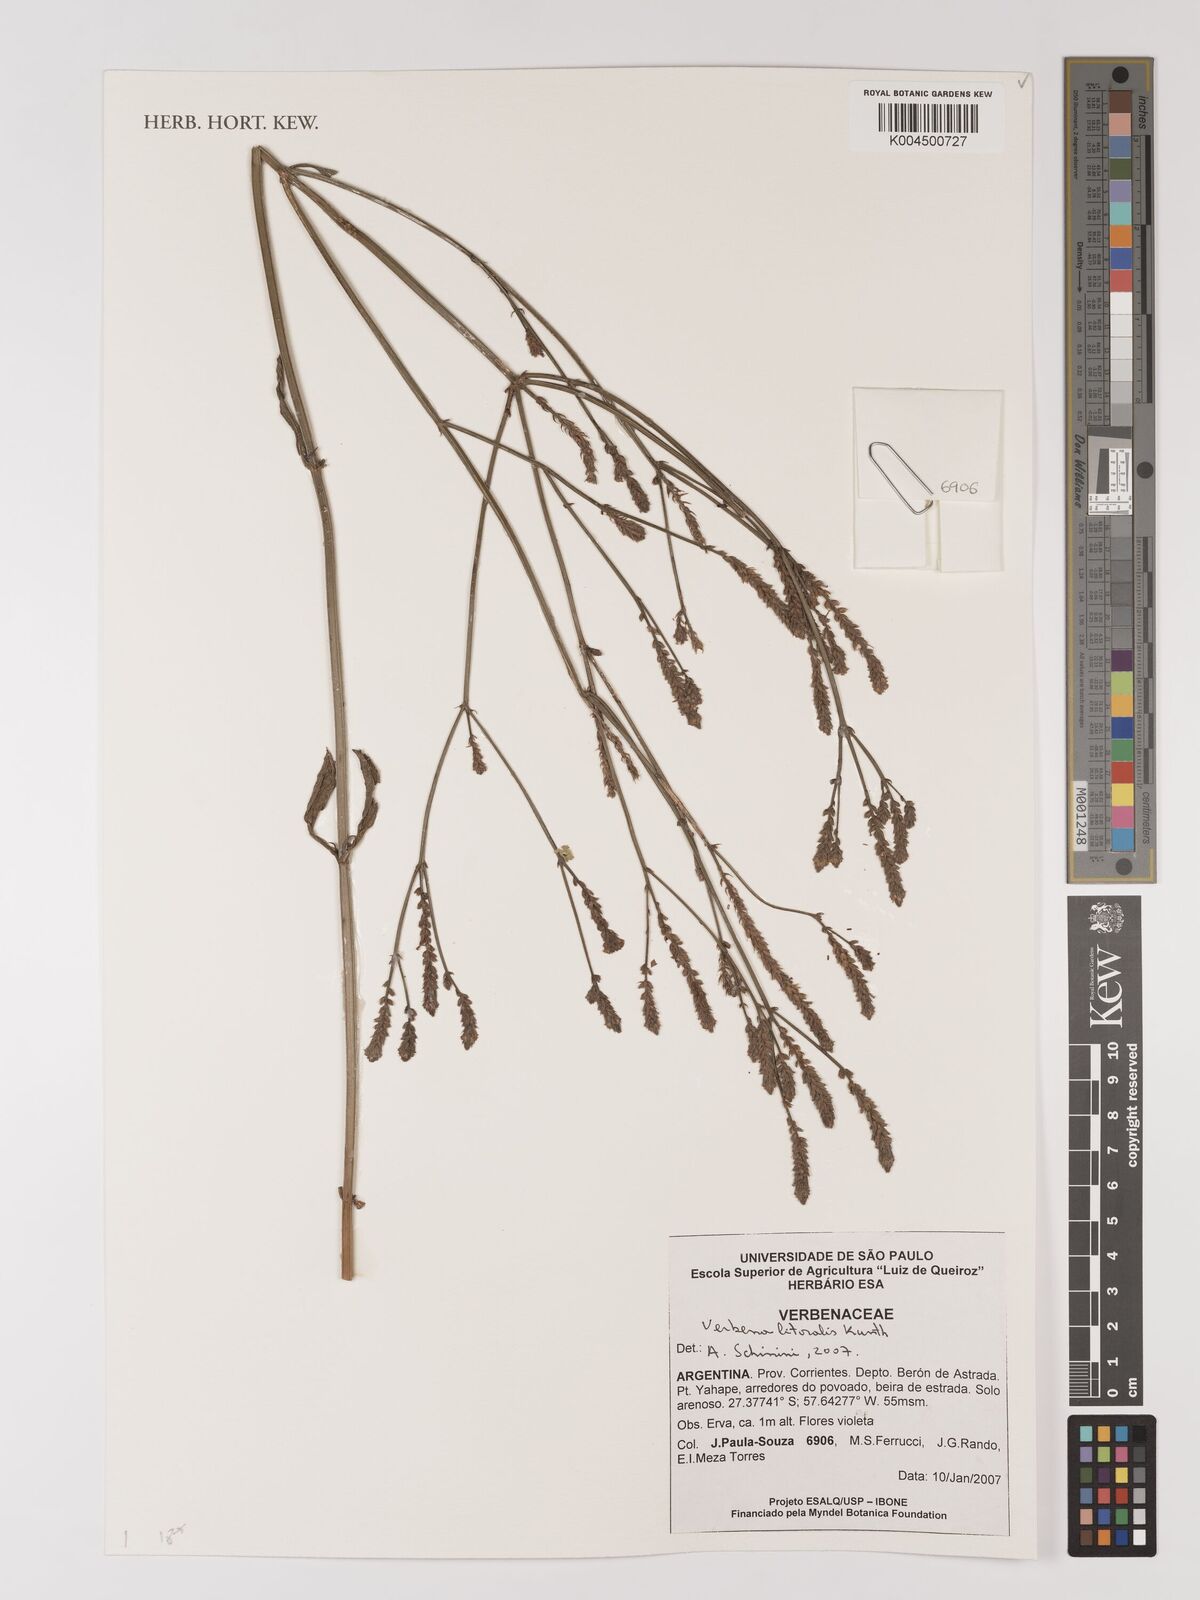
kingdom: Plantae
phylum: Tracheophyta
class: Magnoliopsida
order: Lamiales
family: Verbenaceae
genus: Verbena
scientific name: Verbena litoralis
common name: Seashore vervain
